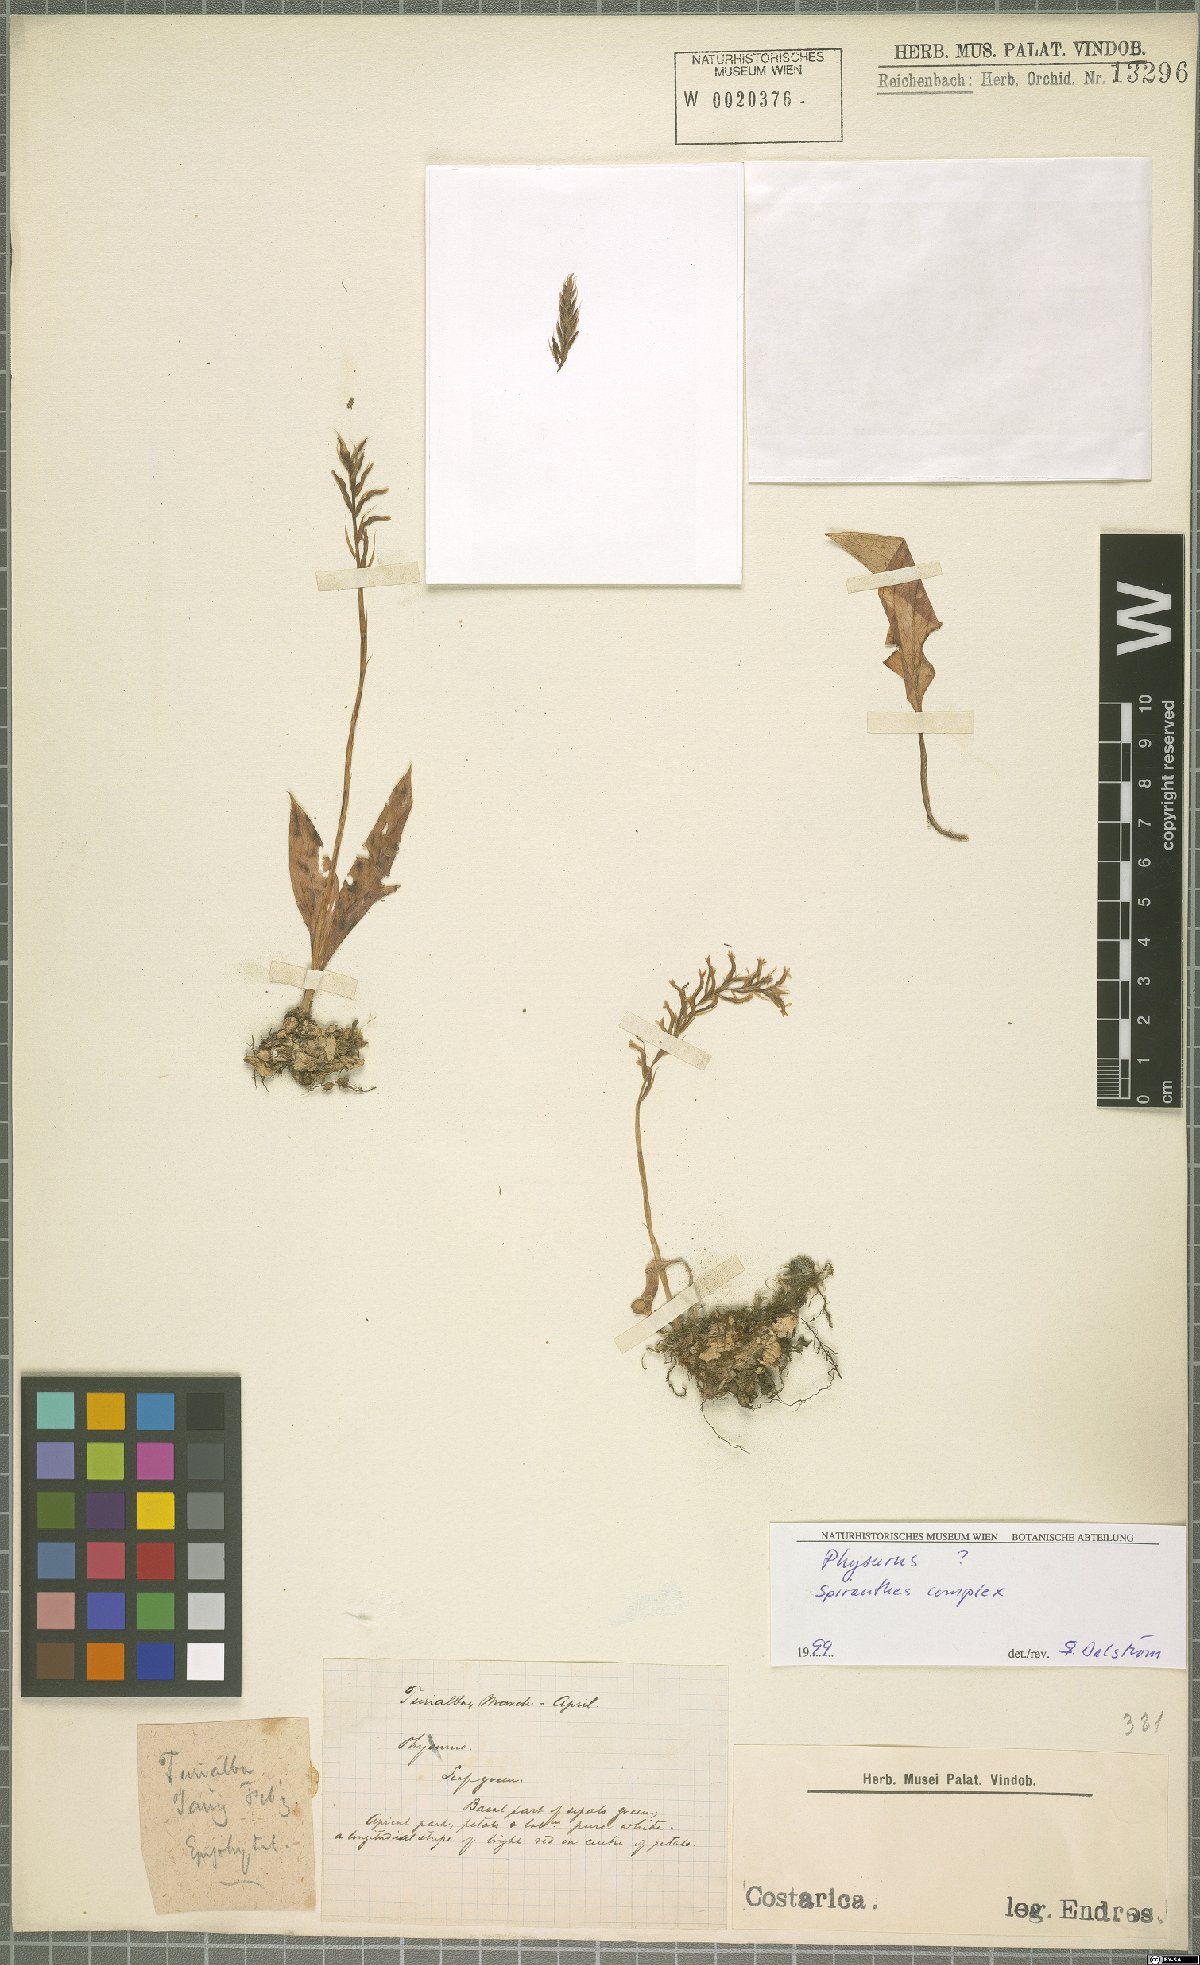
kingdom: Plantae
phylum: Tracheophyta
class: Liliopsida
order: Asparagales
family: Orchidaceae
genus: Erythrodes
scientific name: Erythrodes
